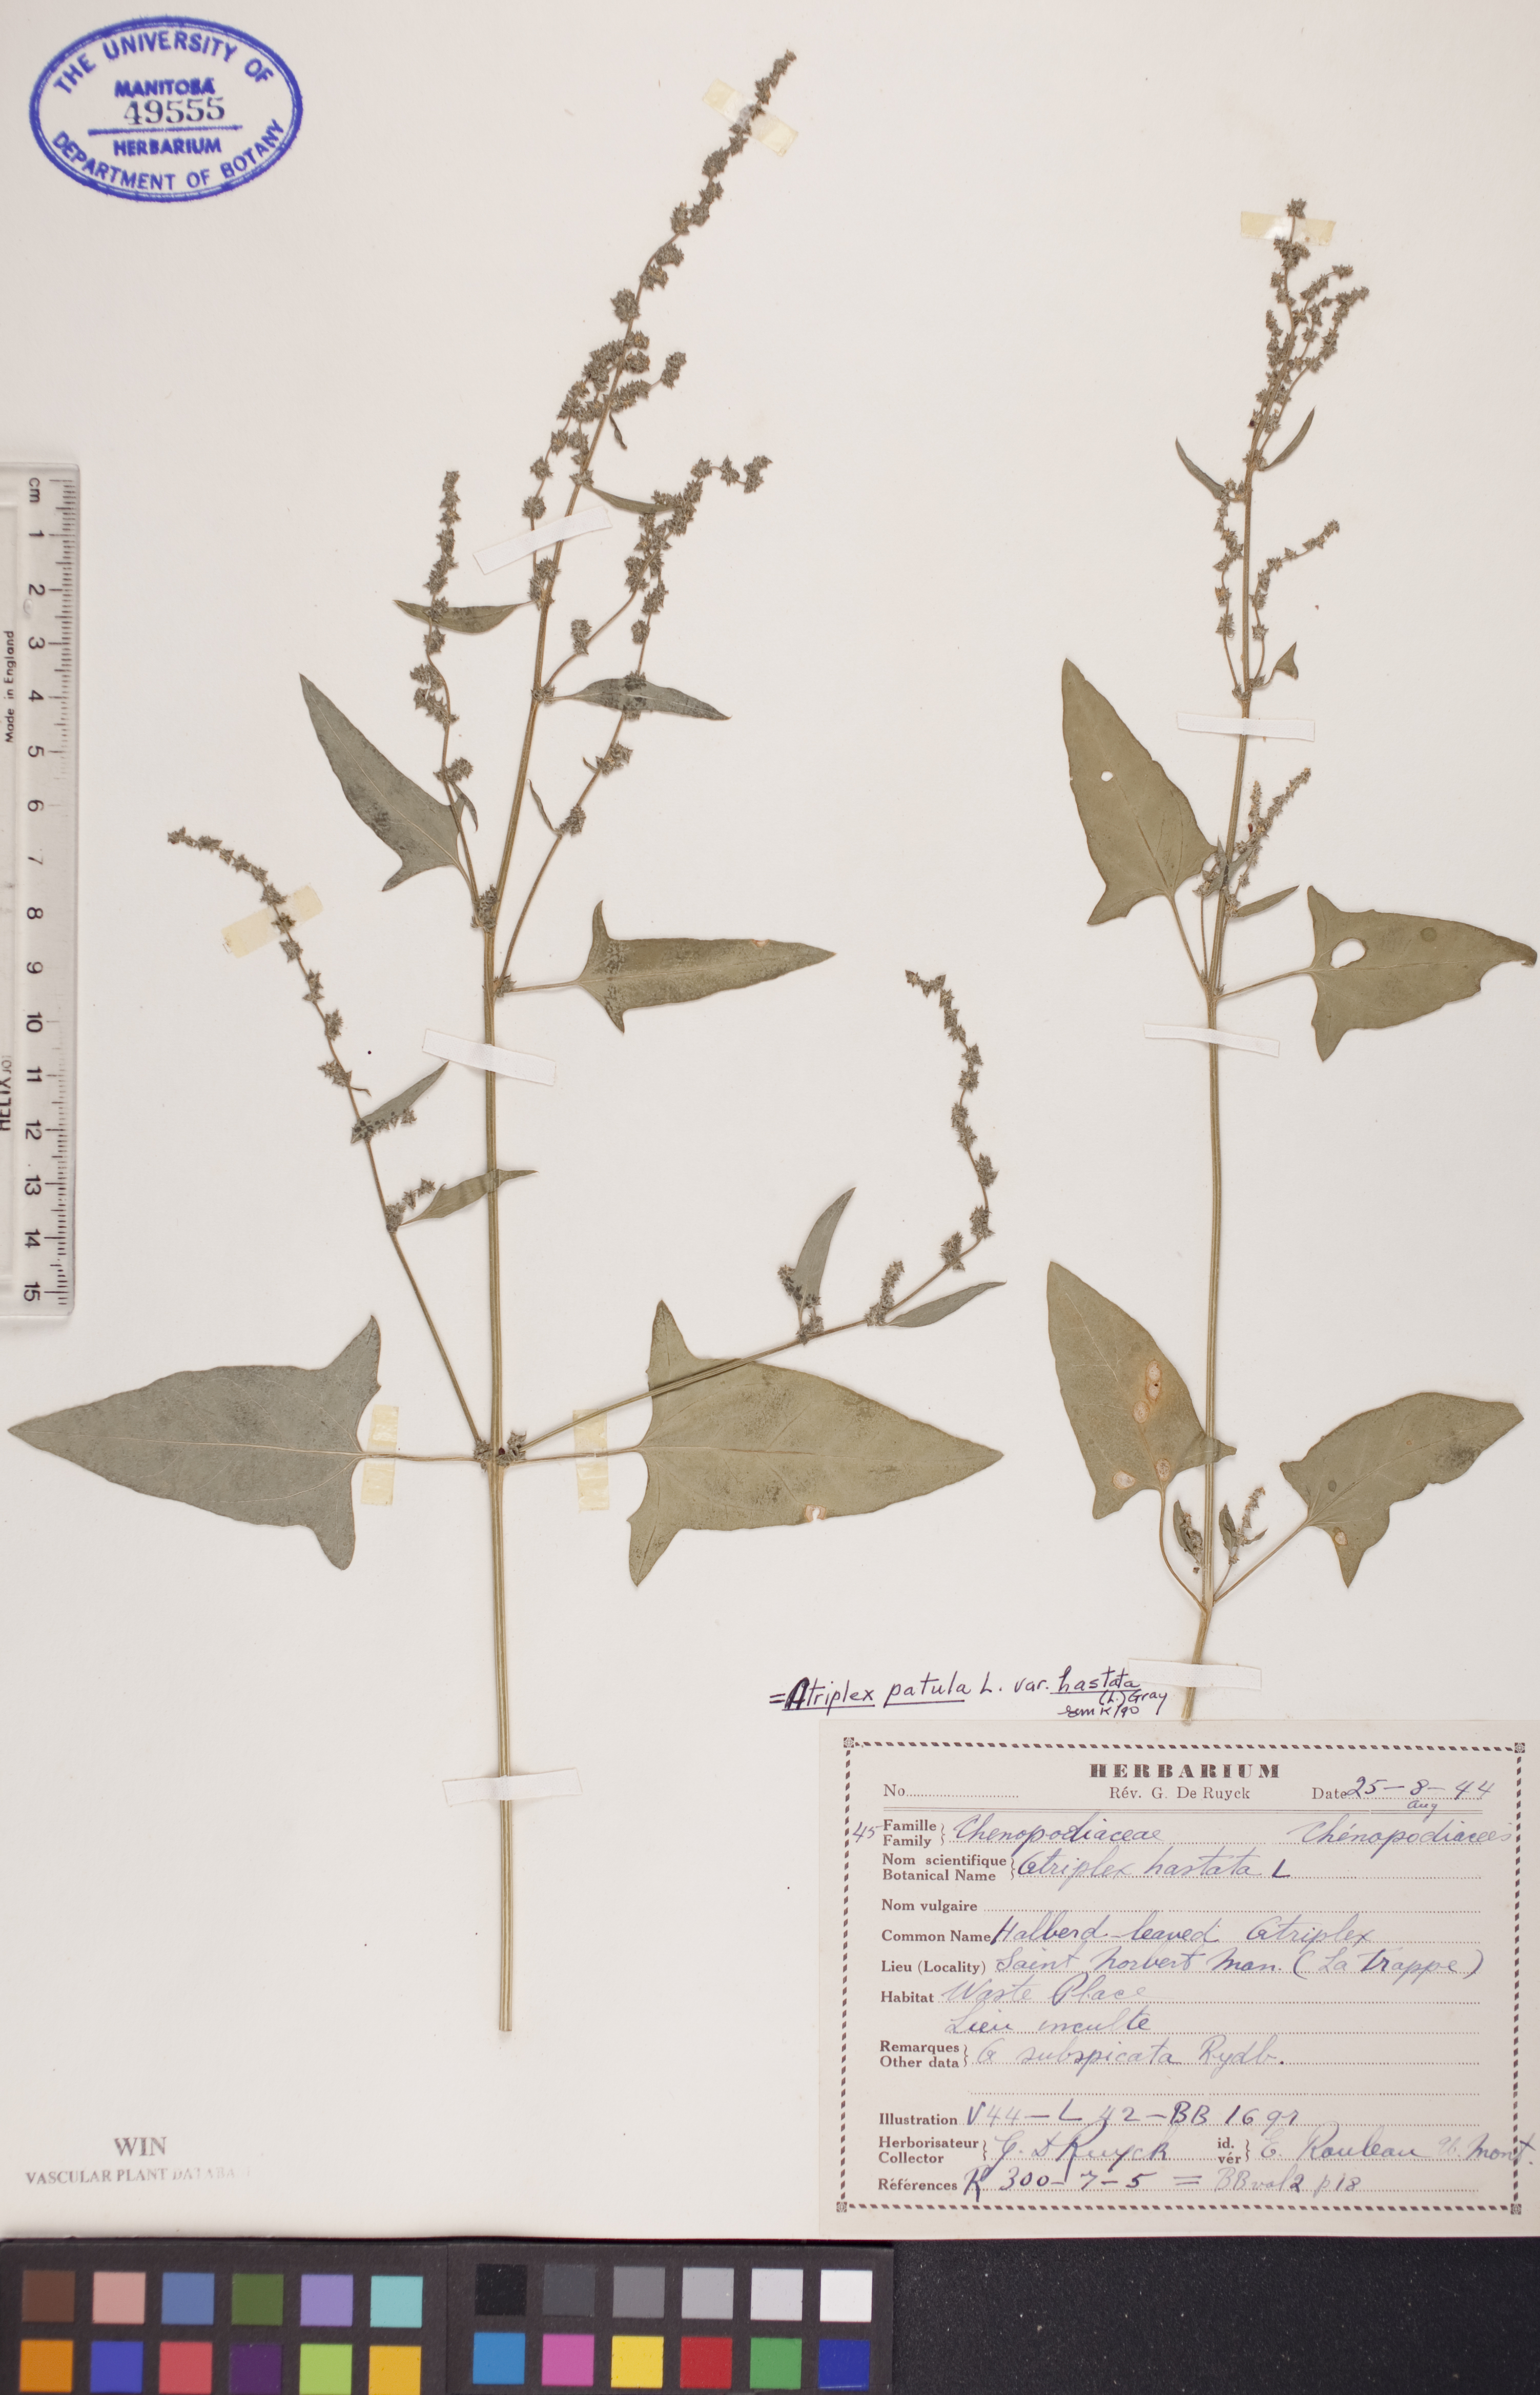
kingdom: Plantae
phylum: Tracheophyta
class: Magnoliopsida
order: Caryophyllales
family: Amaranthaceae
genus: Atriplex
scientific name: Atriplex
